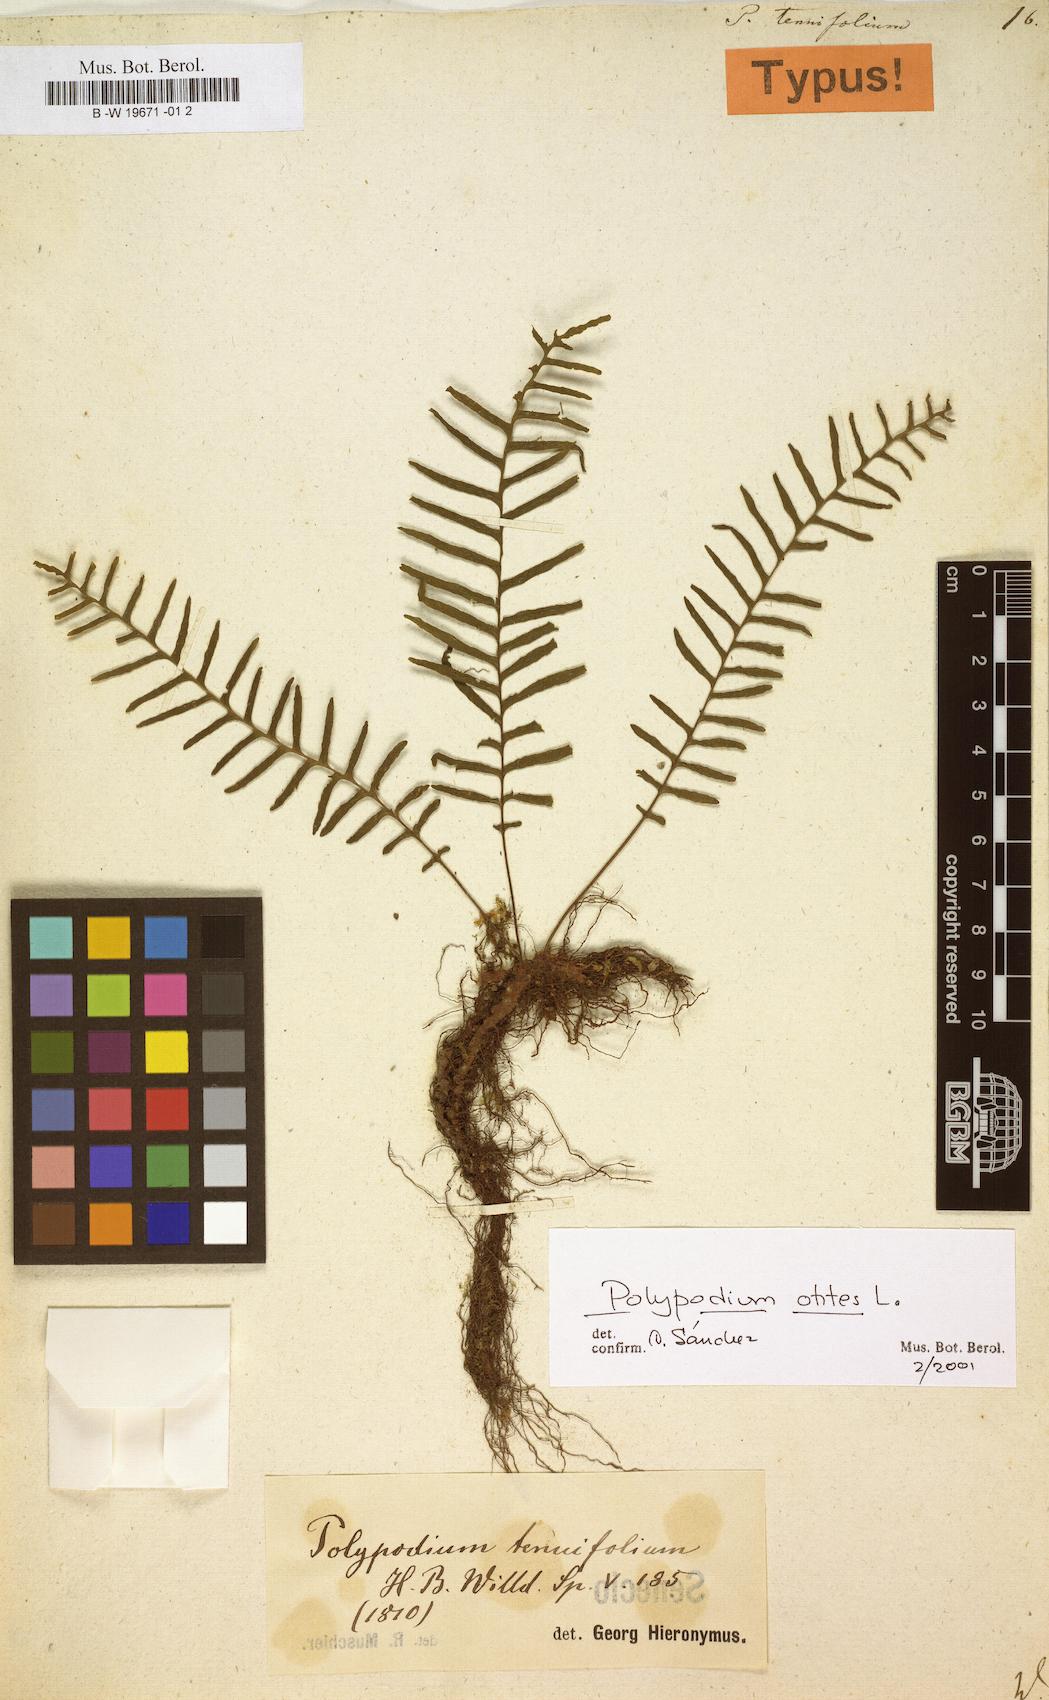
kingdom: Plantae
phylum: Tracheophyta
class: Polypodiopsida
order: Polypodiales
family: Polypodiaceae
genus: Polypodium
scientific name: Polypodium otites
